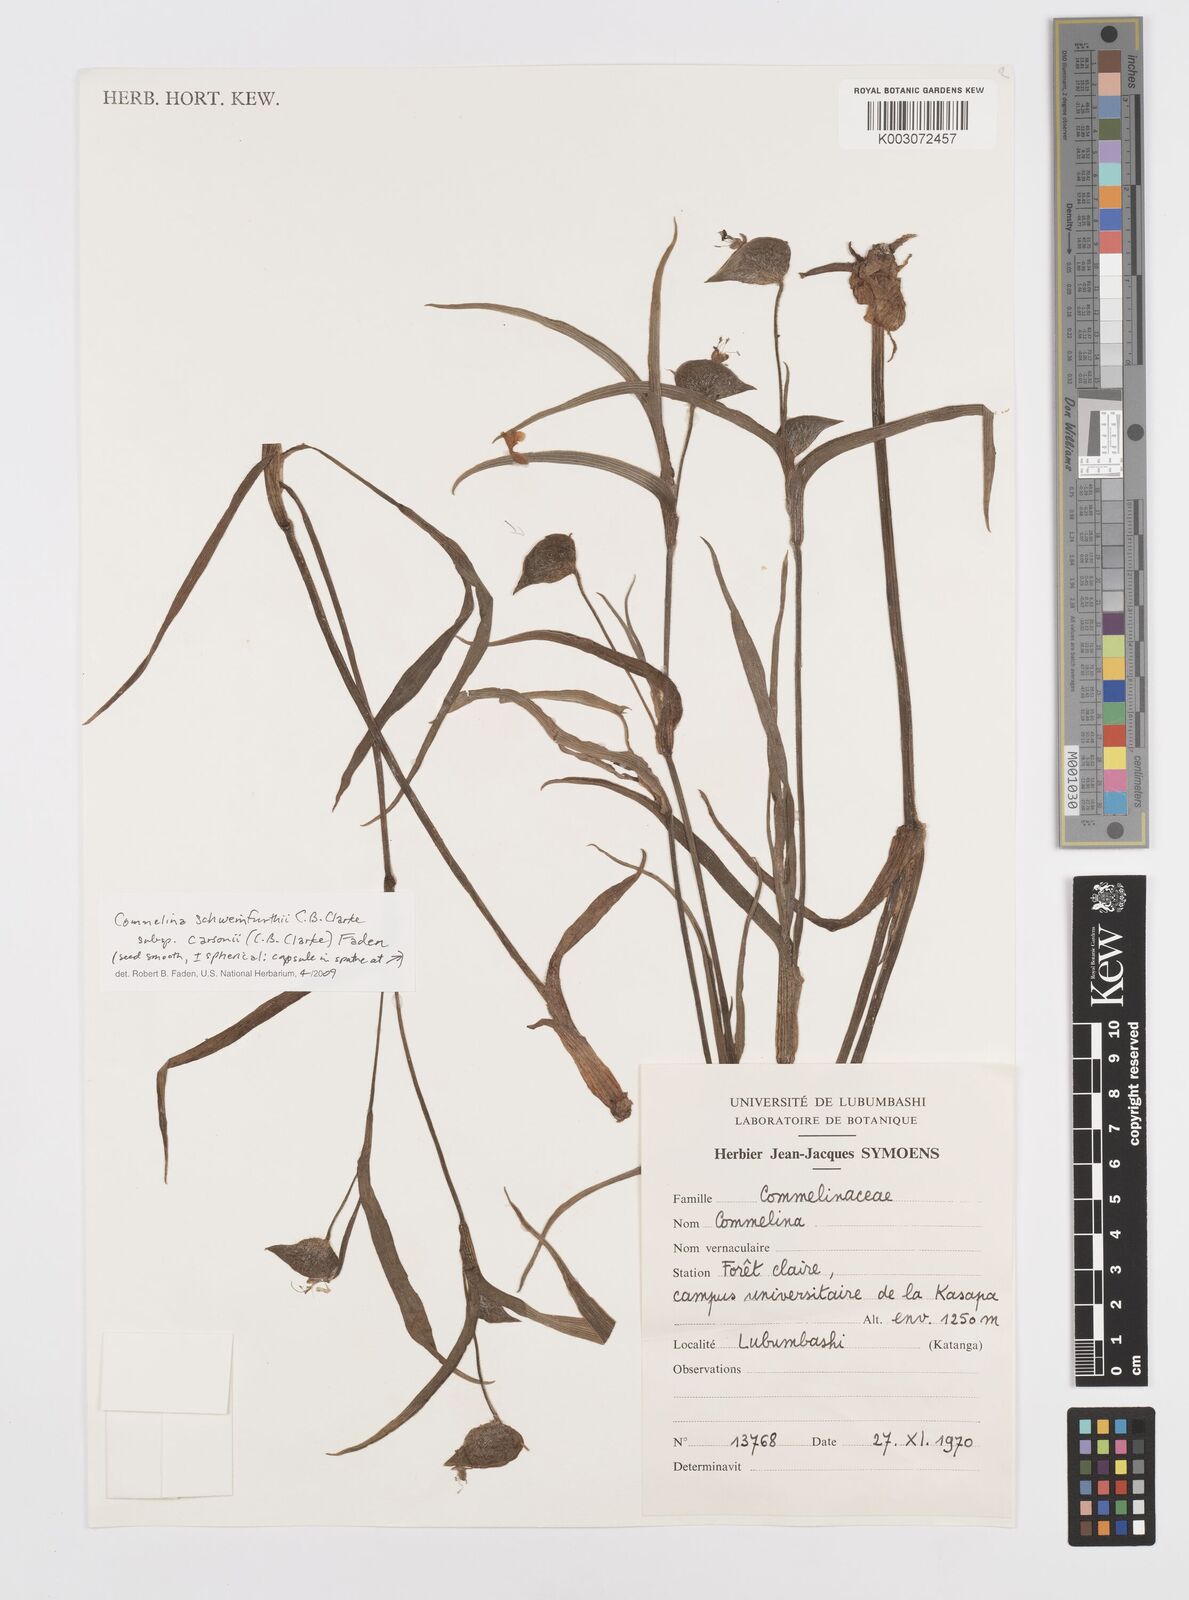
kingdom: Plantae
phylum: Tracheophyta
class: Liliopsida
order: Commelinales
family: Commelinaceae
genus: Commelina
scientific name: Commelina
